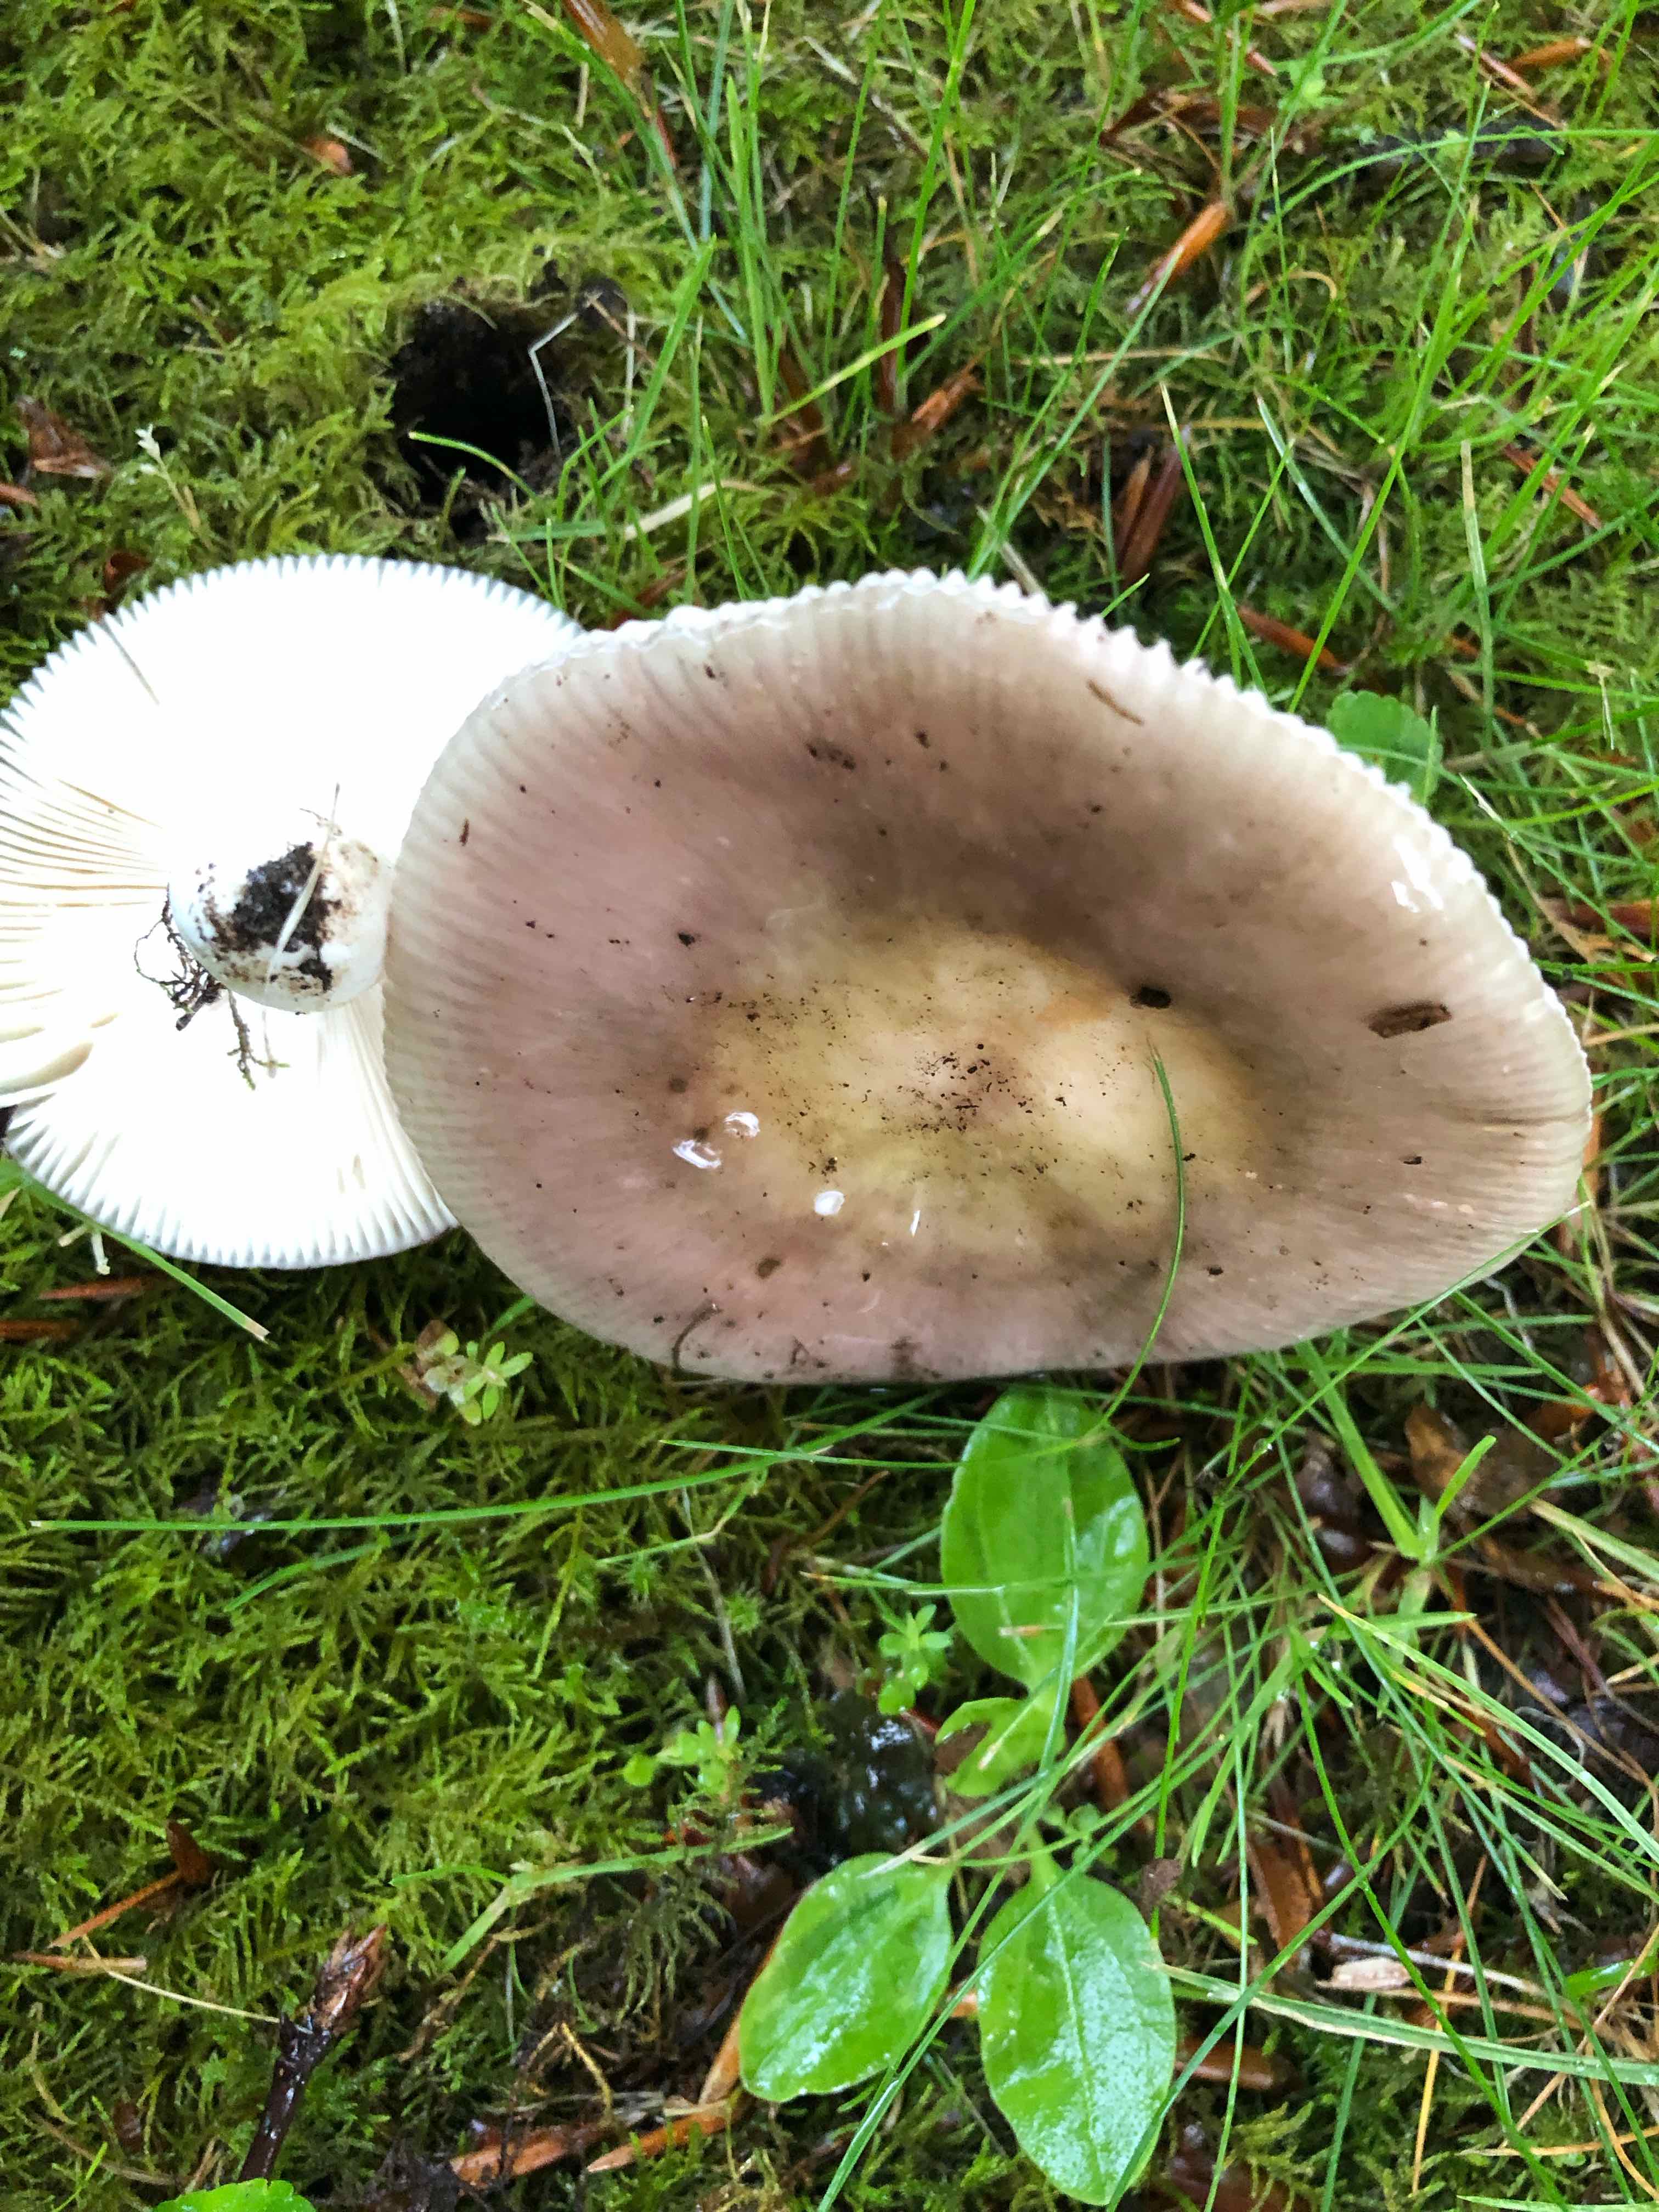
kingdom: Fungi
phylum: Basidiomycota
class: Agaricomycetes
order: Russulales
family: Russulaceae
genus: Russula
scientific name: Russula
